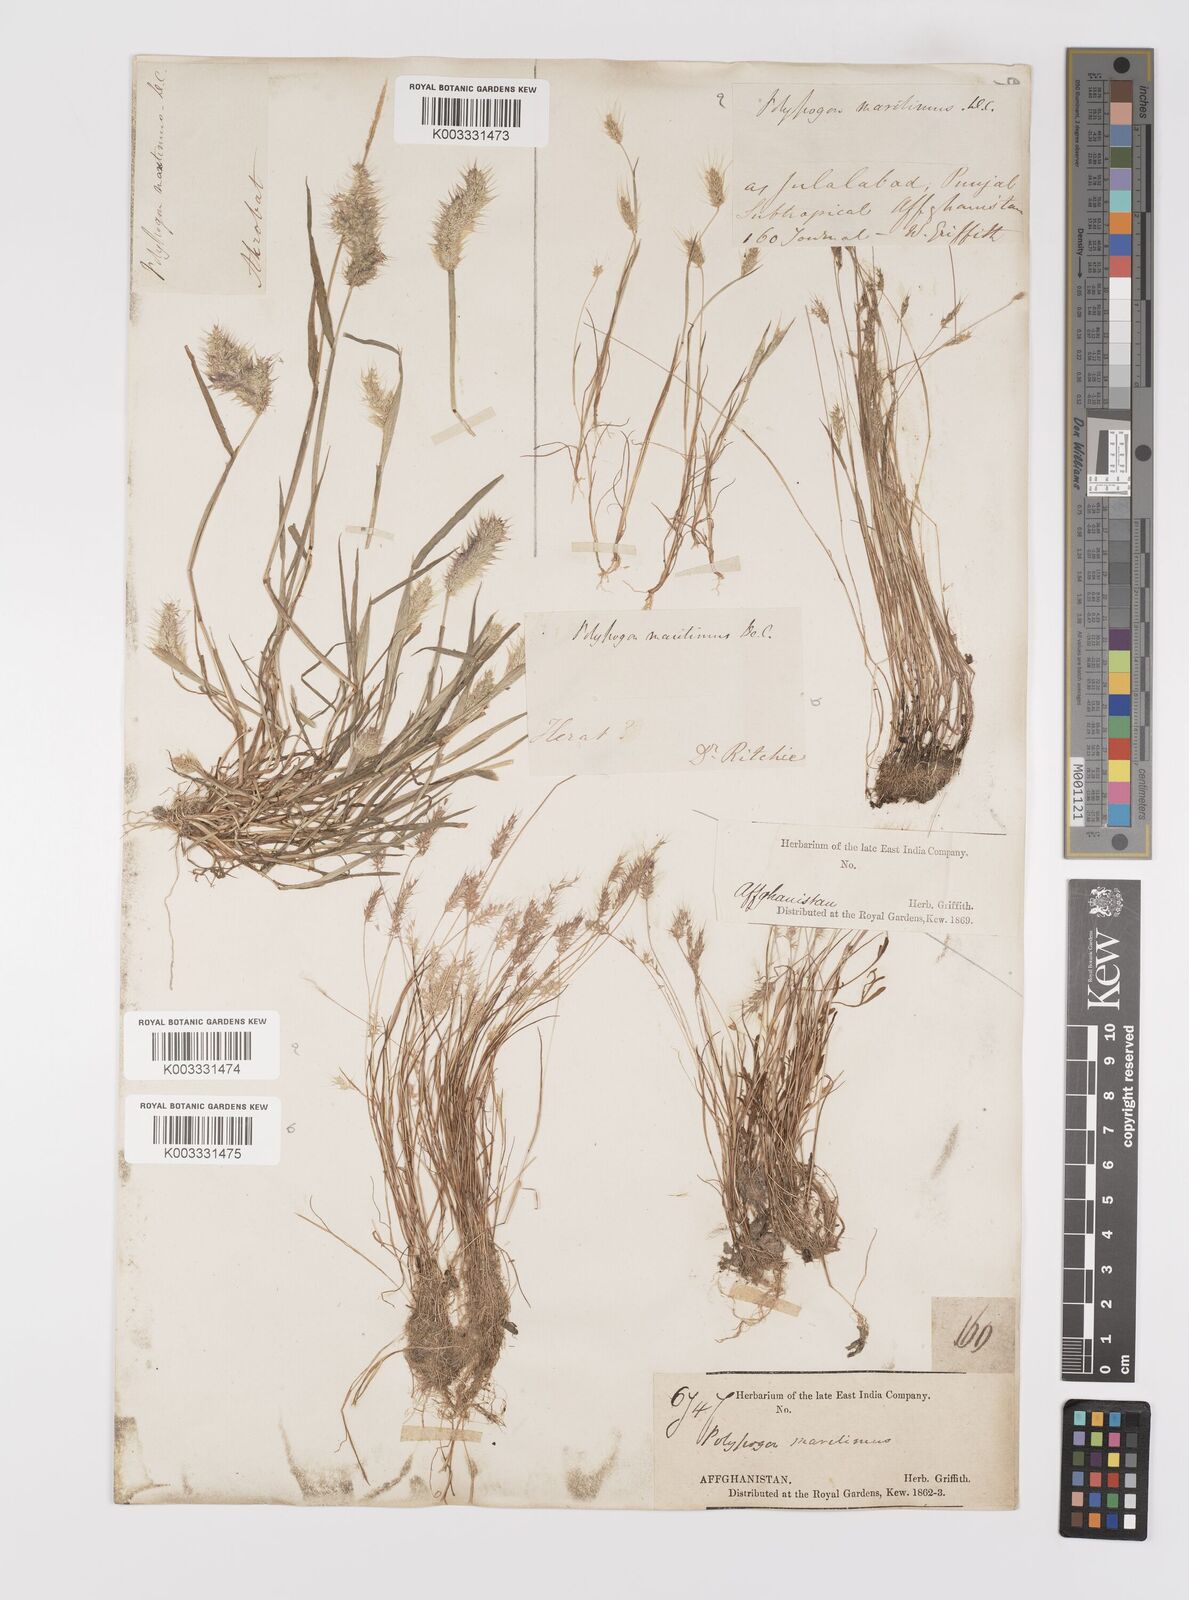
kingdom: Plantae
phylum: Tracheophyta
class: Liliopsida
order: Poales
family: Poaceae
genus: Polypogon
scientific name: Polypogon maritimus
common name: Mediterranean rabbitsfoot grass
